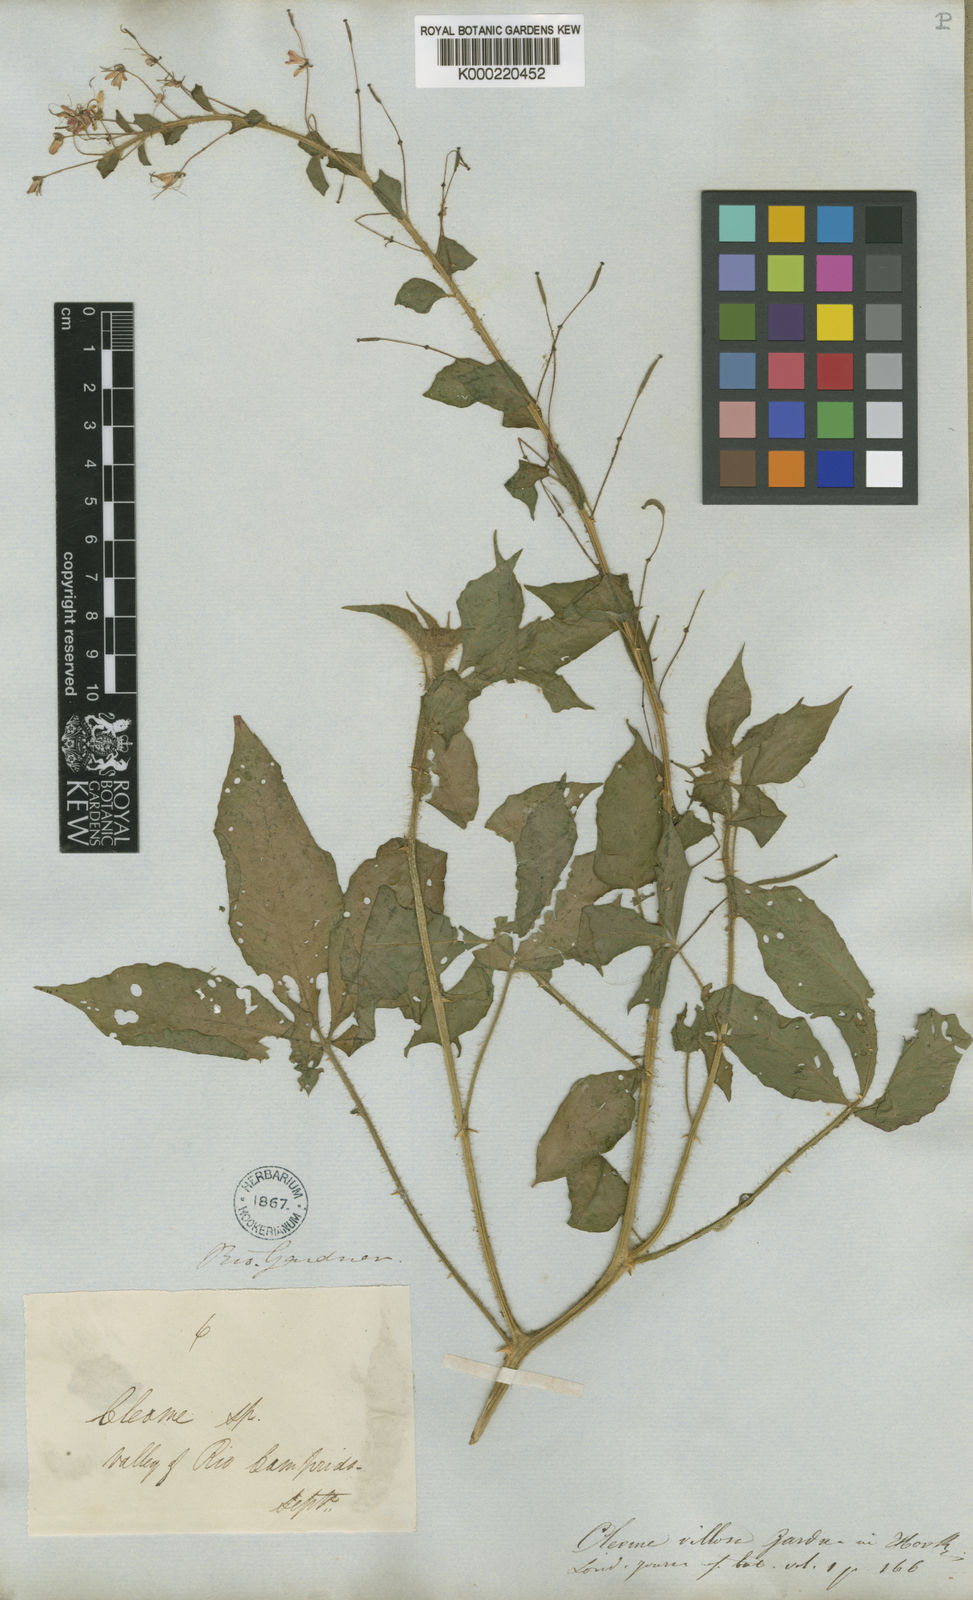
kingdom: Plantae
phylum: Tracheophyta
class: Magnoliopsida
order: Brassicales
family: Cleomaceae
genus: Tarenaya
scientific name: Tarenaya psoraleifolia
